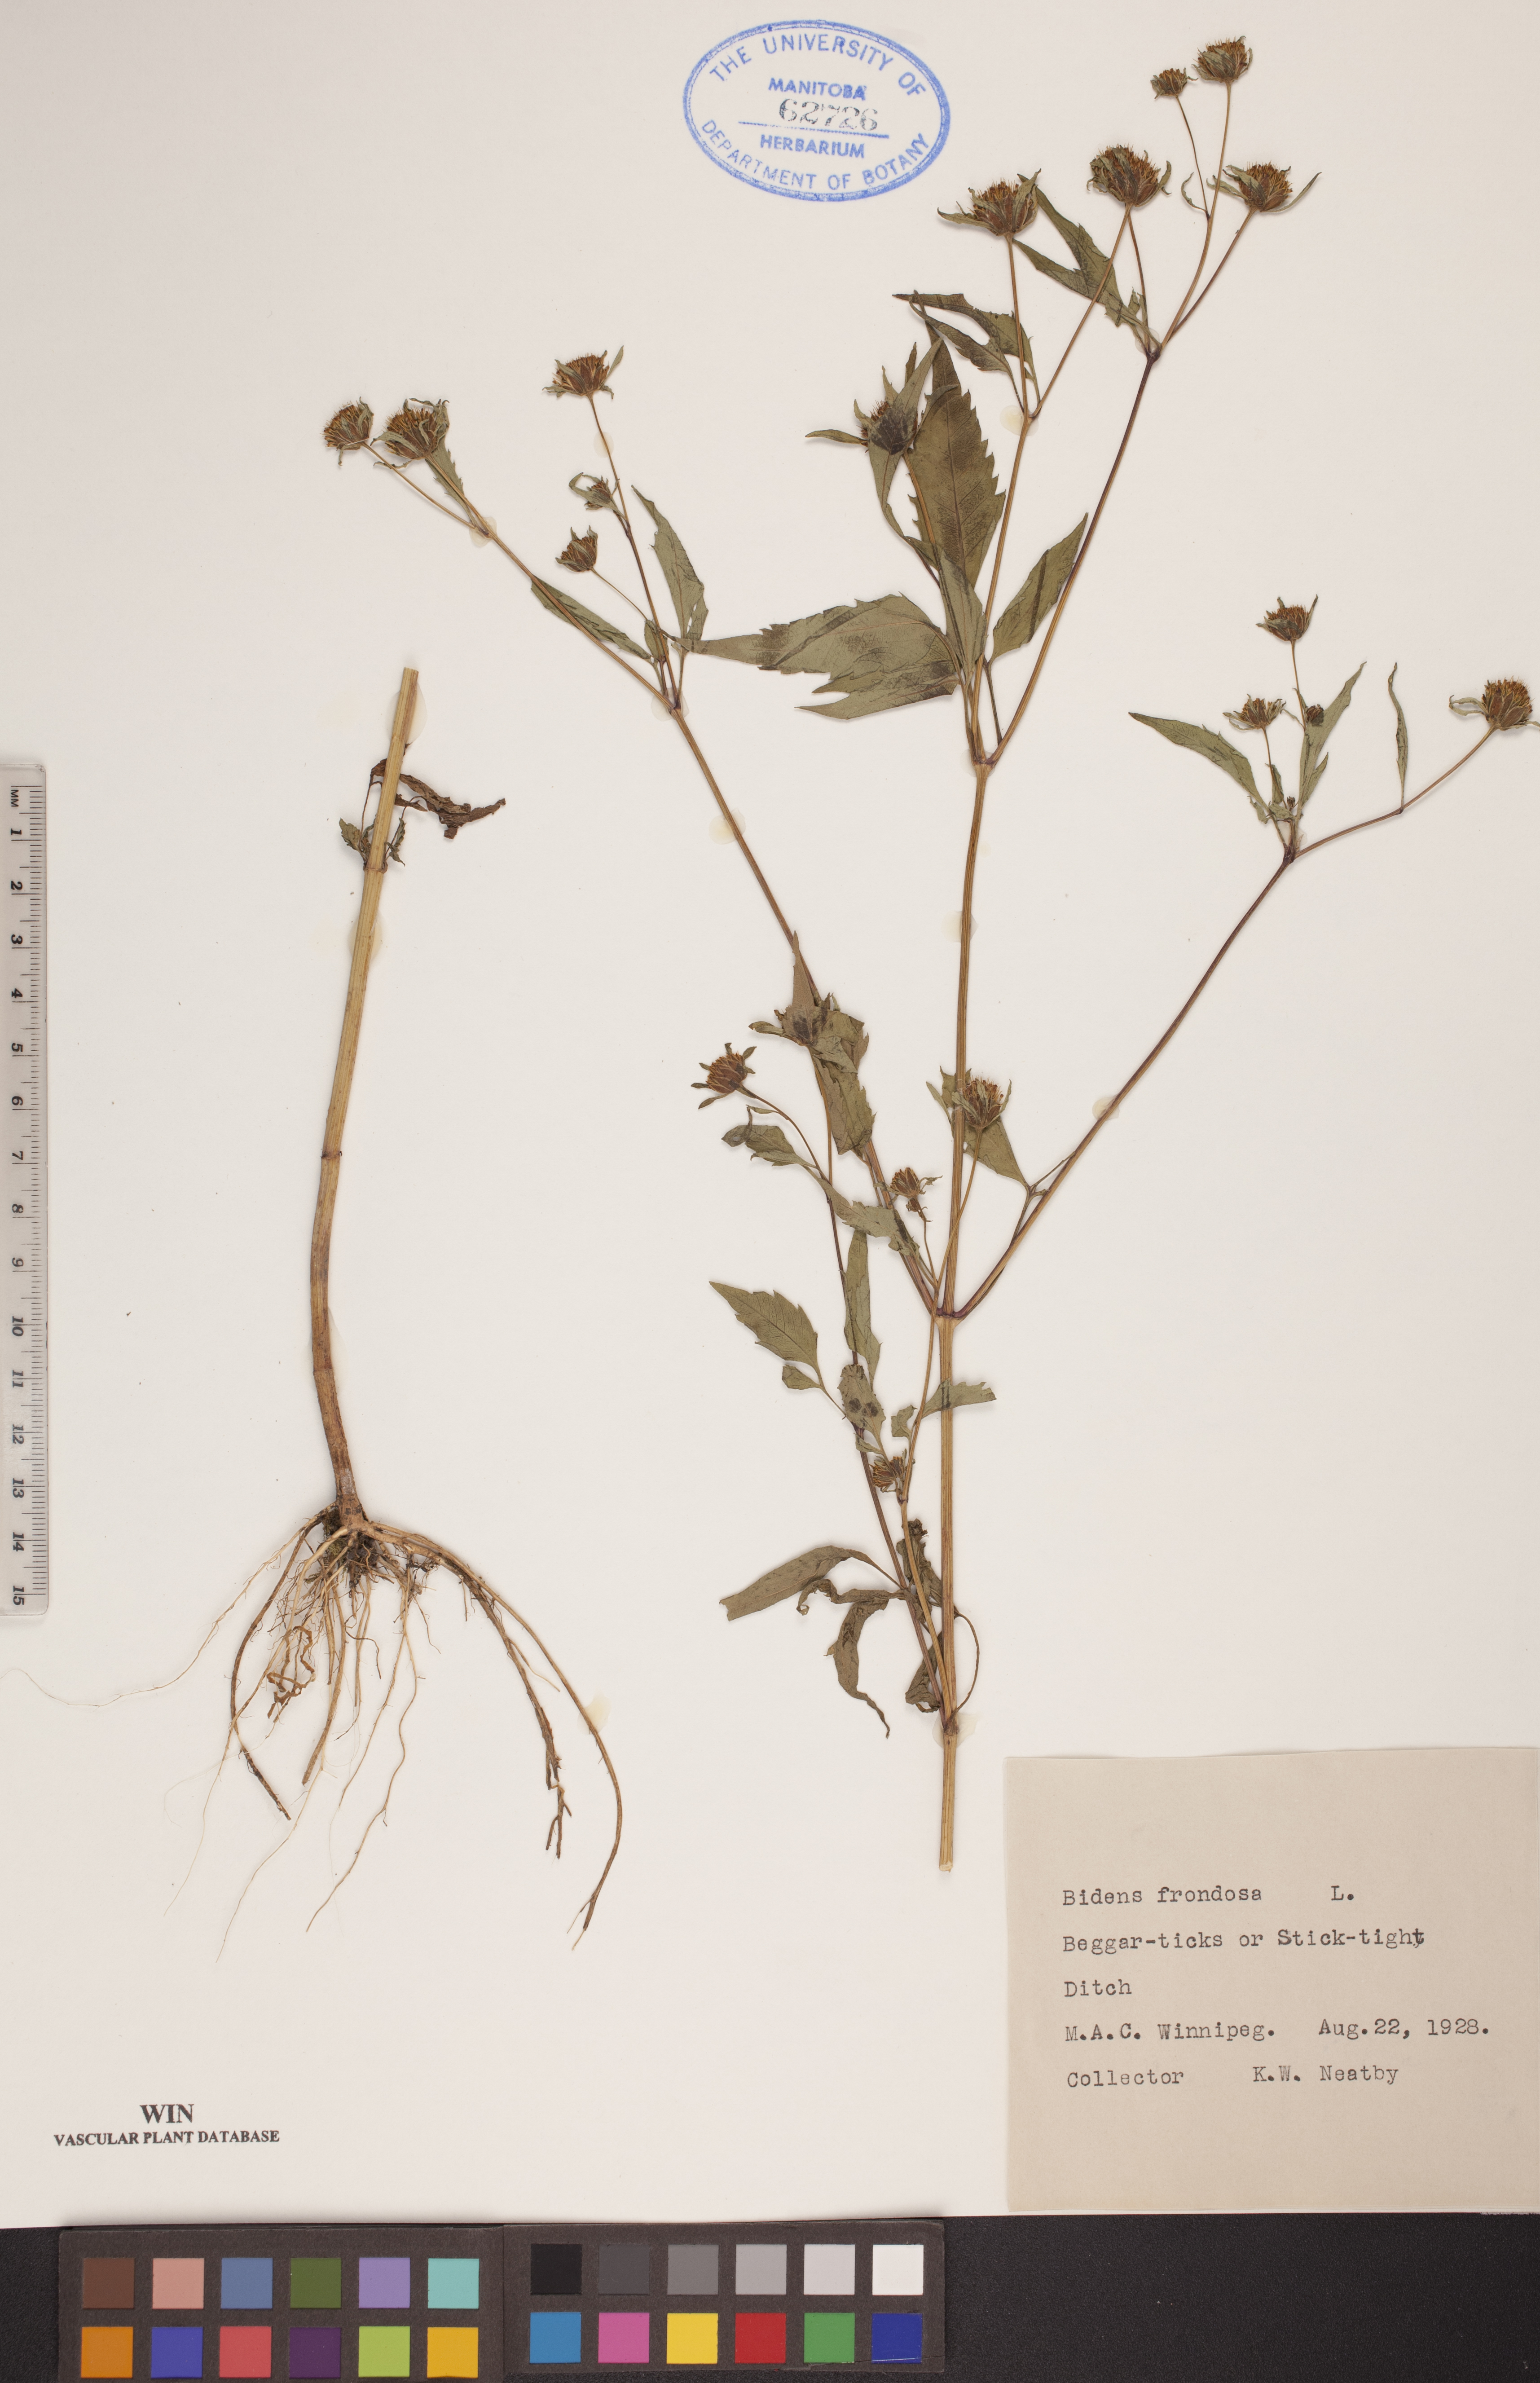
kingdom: Plantae
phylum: Tracheophyta
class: Magnoliopsida
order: Asterales
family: Asteraceae
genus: Bidens
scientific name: Bidens frondosa
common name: Beggarticks
